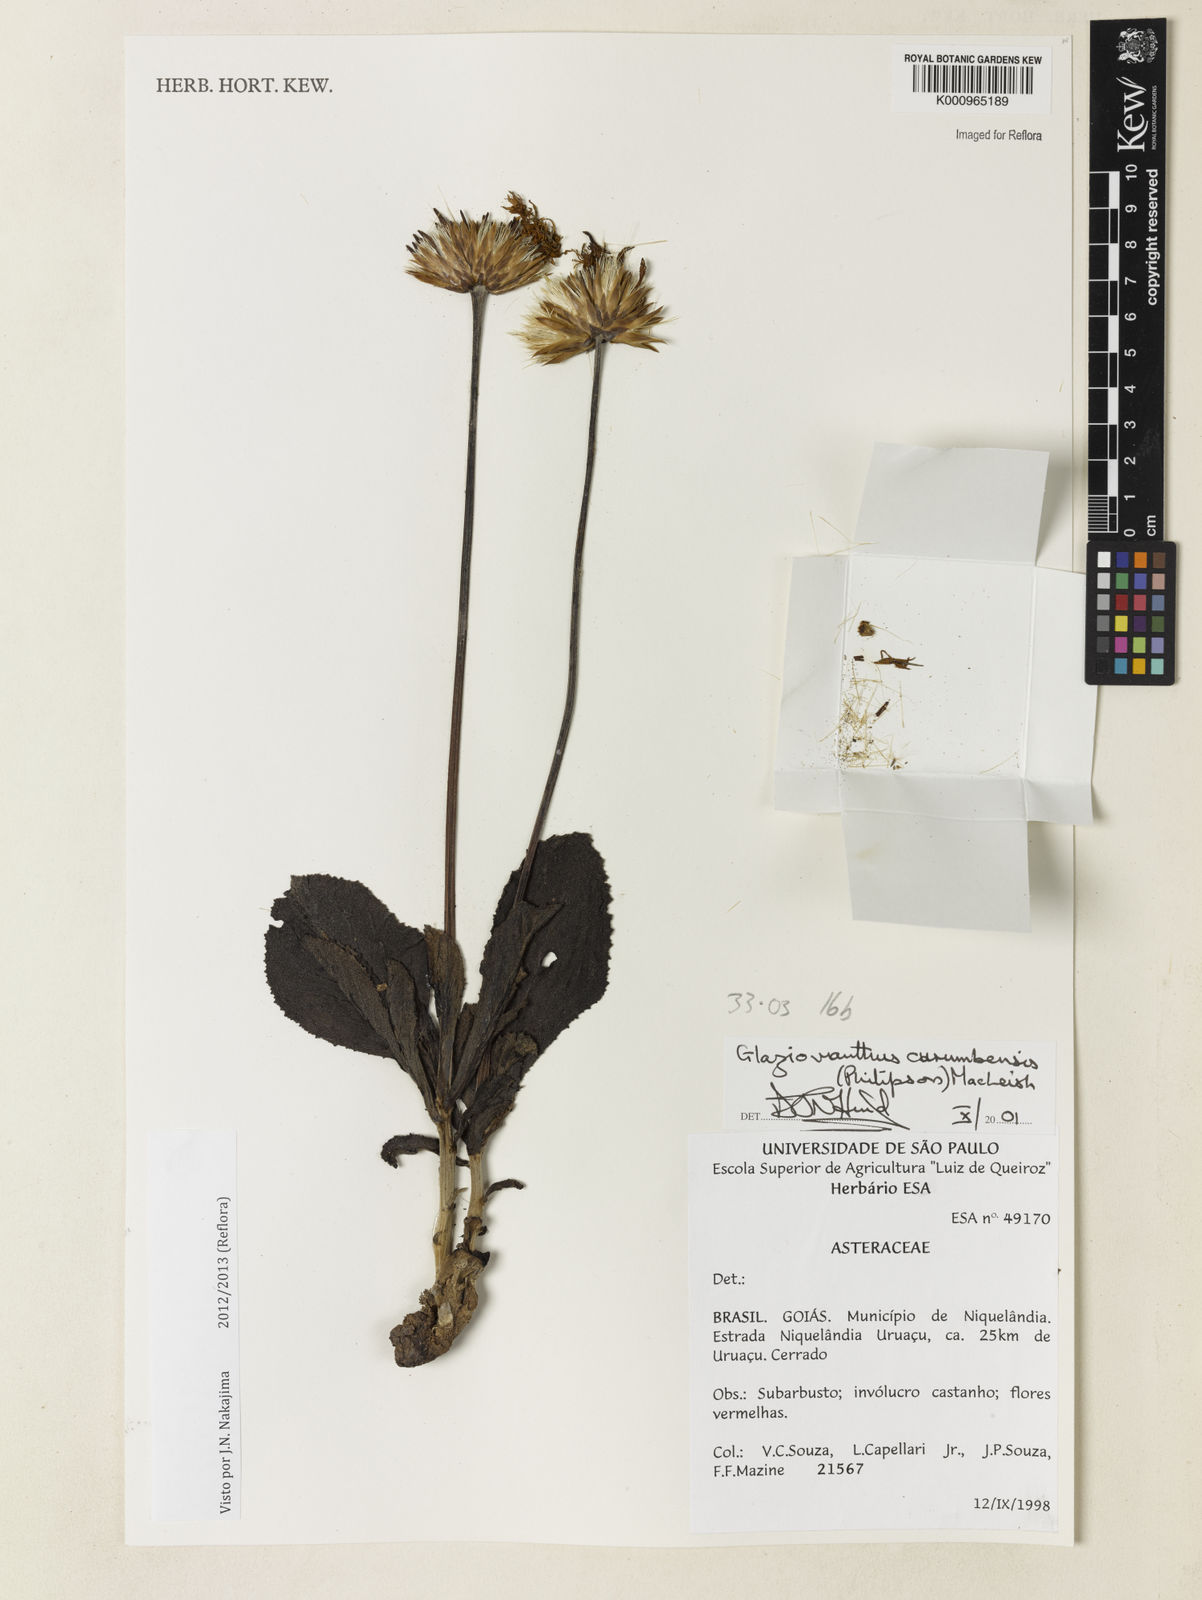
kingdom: Plantae
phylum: Tracheophyta
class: Magnoliopsida
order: Asterales
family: Asteraceae
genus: Chresta
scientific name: Chresta curumbensis
